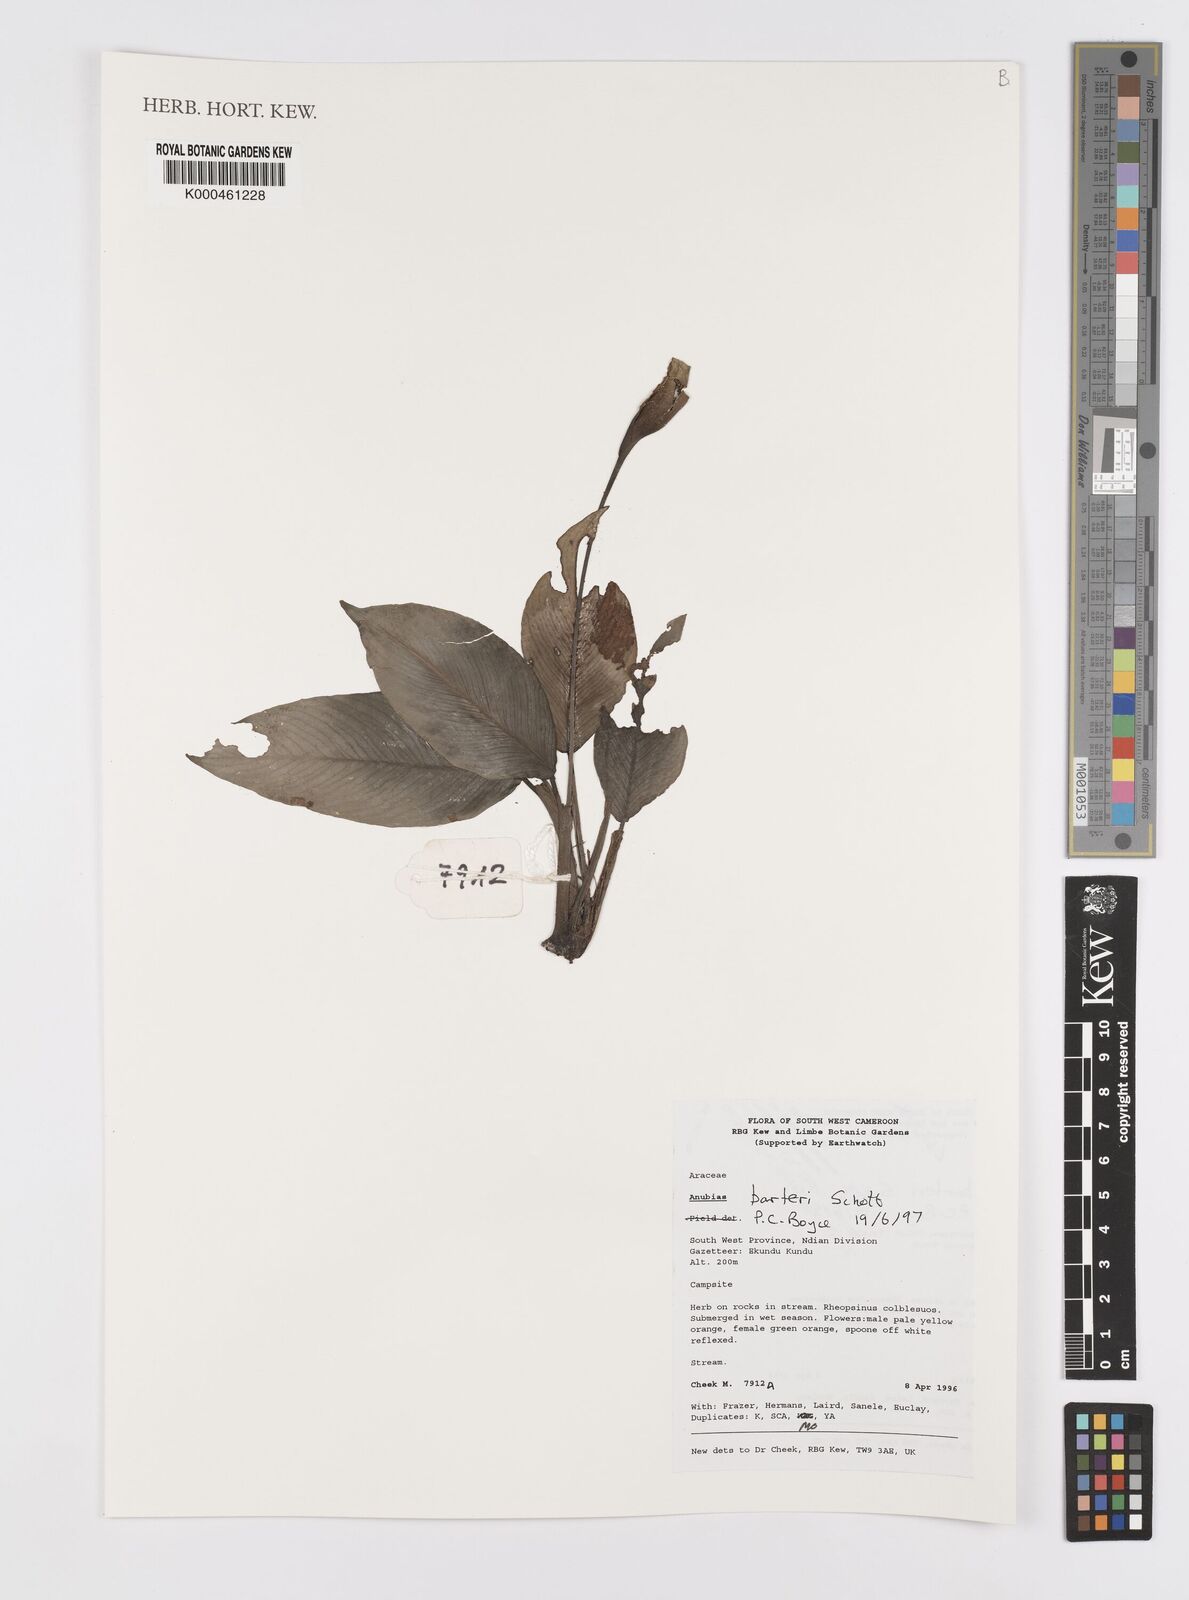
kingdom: Plantae
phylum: Tracheophyta
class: Liliopsida
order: Alismatales
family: Araceae
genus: Anubias
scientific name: Anubias barteri
